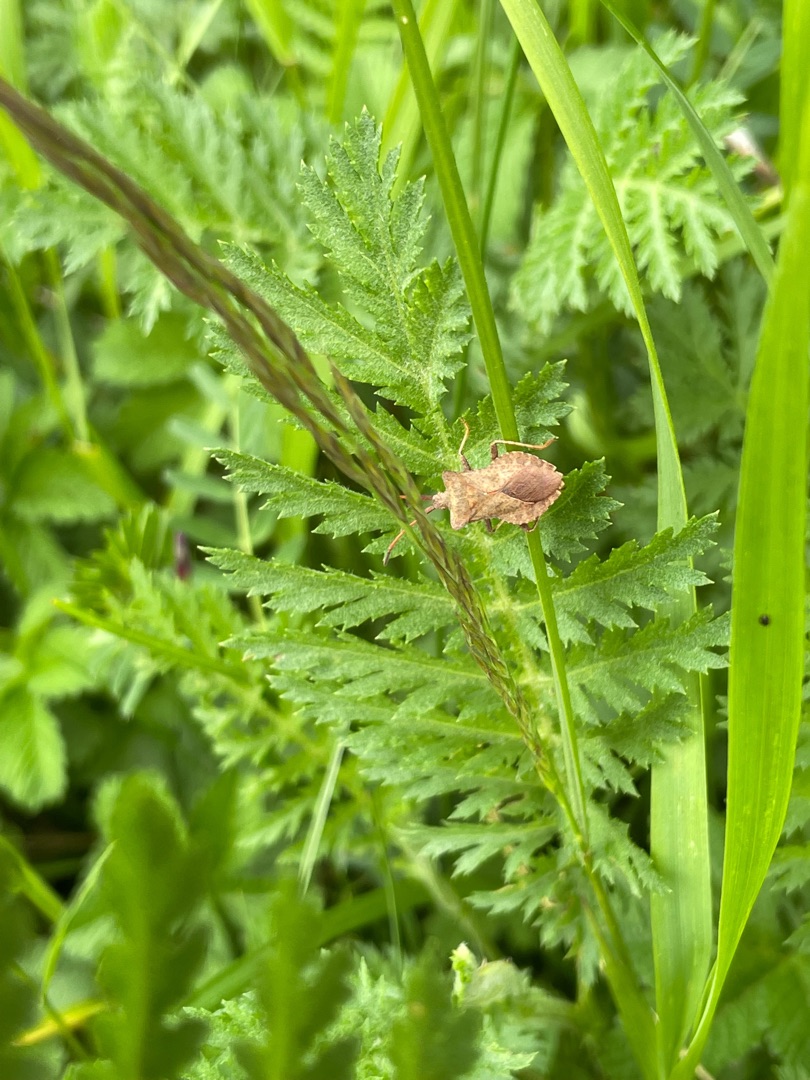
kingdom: Animalia
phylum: Arthropoda
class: Insecta
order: Hemiptera
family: Coreidae
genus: Coreus
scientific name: Coreus marginatus
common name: Skræppetæge
